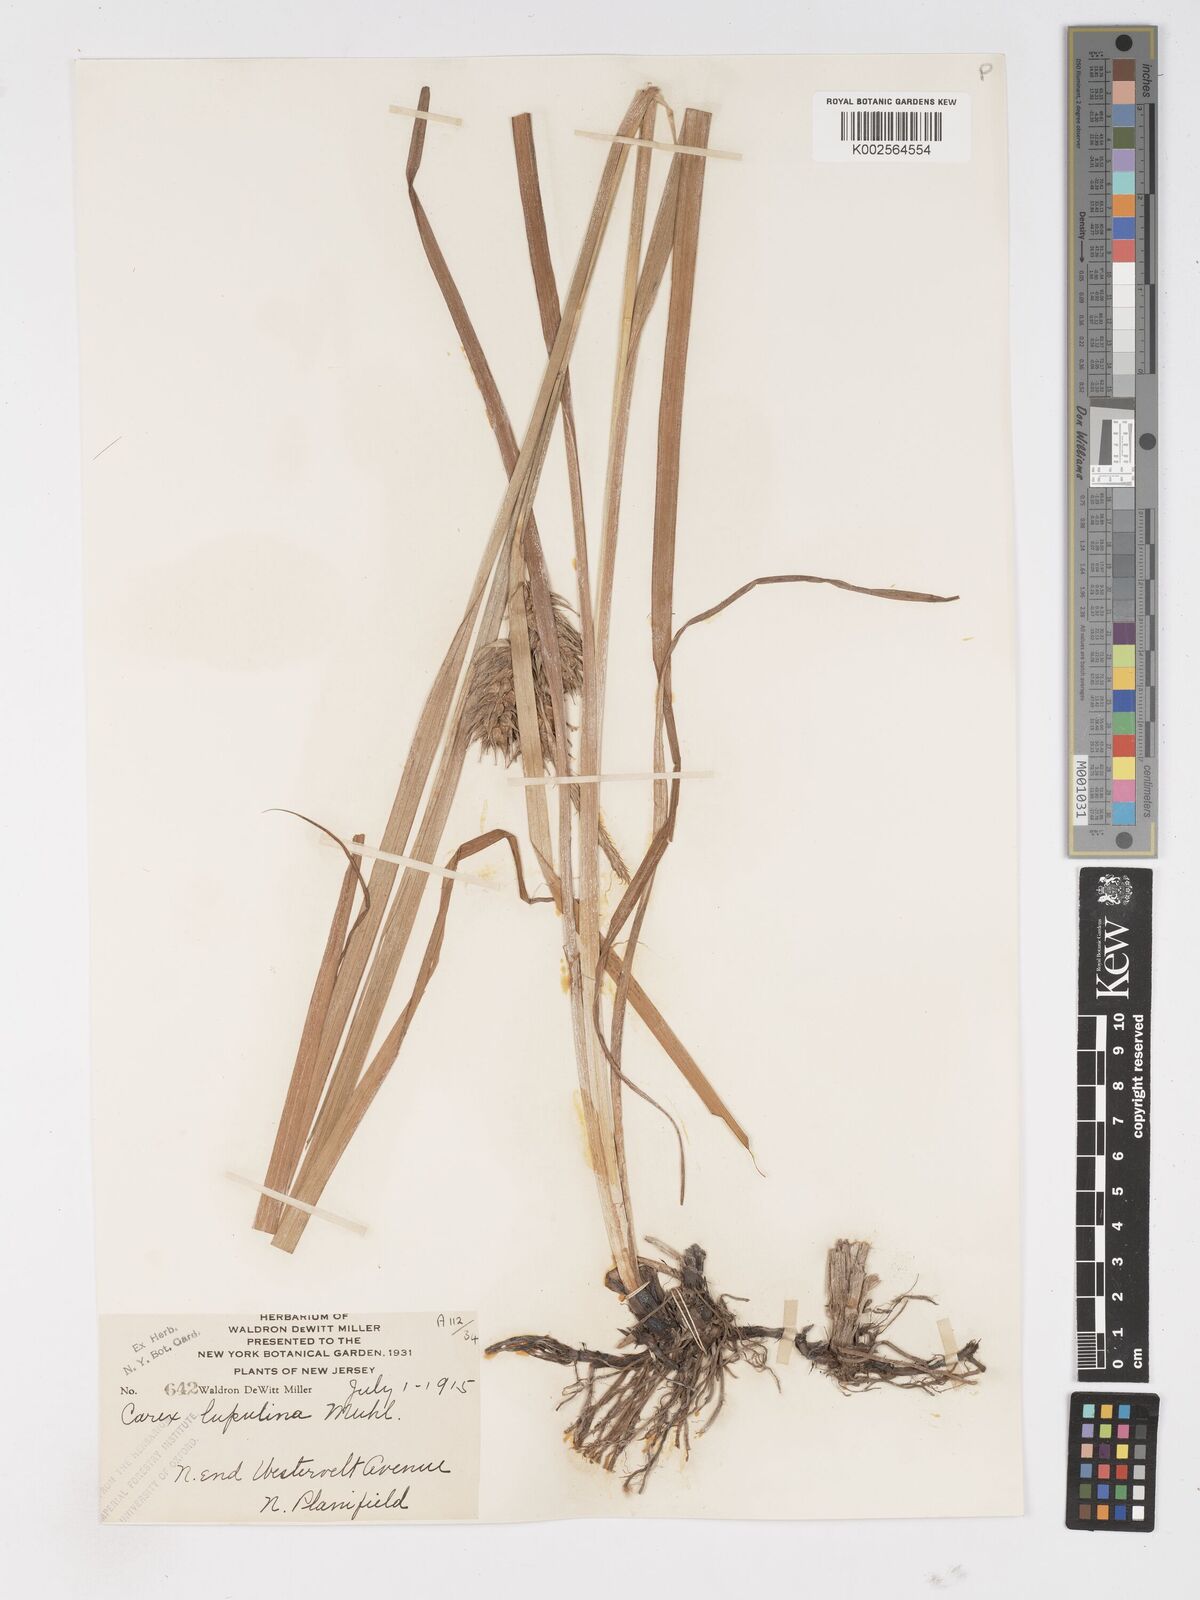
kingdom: Plantae
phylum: Tracheophyta
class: Liliopsida
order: Poales
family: Cyperaceae
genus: Carex
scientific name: Carex lupulina
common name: Hop sedge
